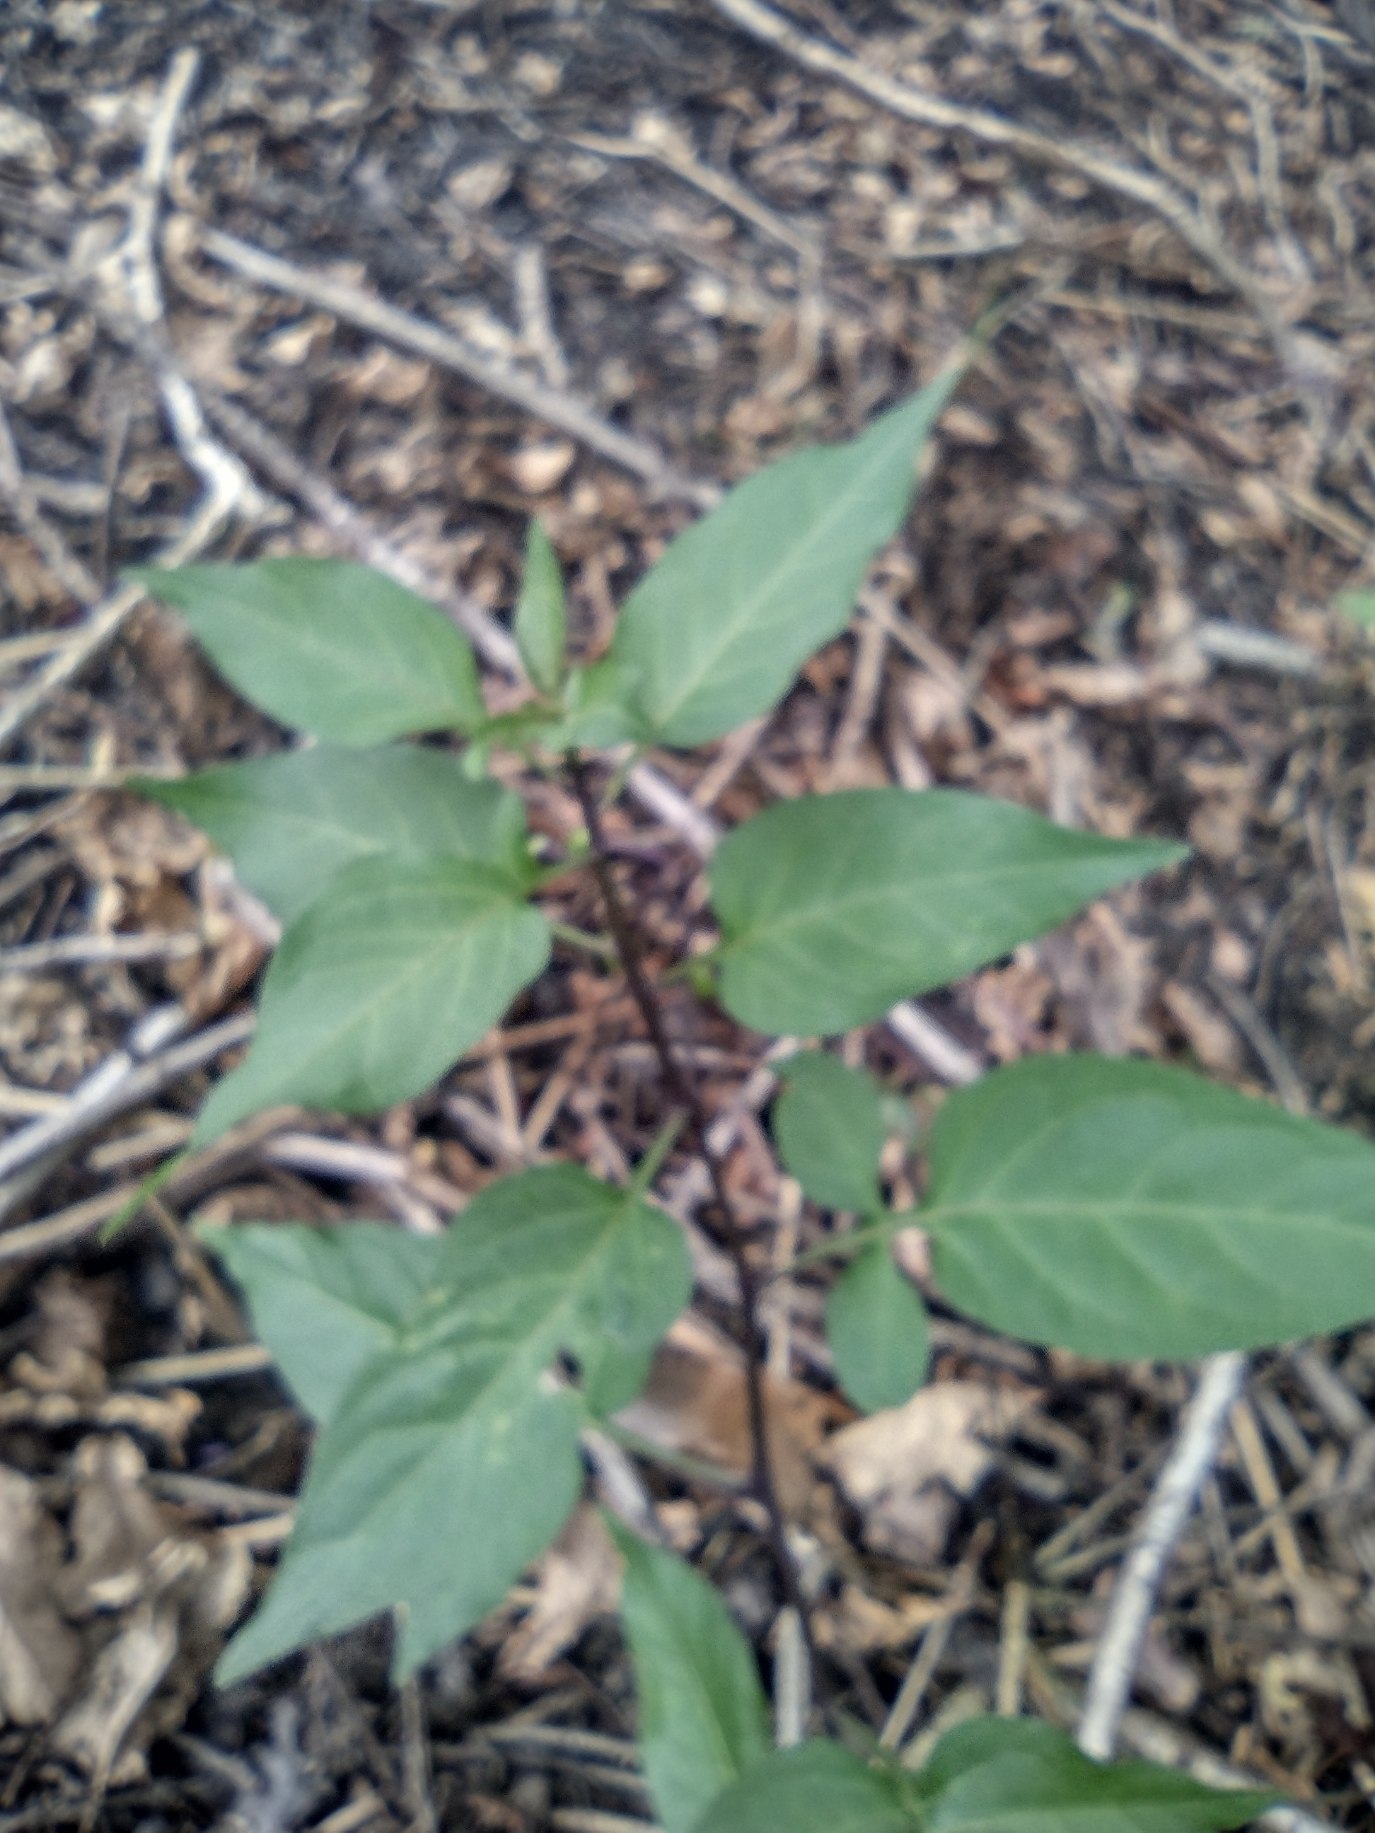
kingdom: Plantae
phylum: Tracheophyta
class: Magnoliopsida
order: Solanales
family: Solanaceae
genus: Solanum
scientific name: Solanum dulcamara
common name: Bittersød natskygge
